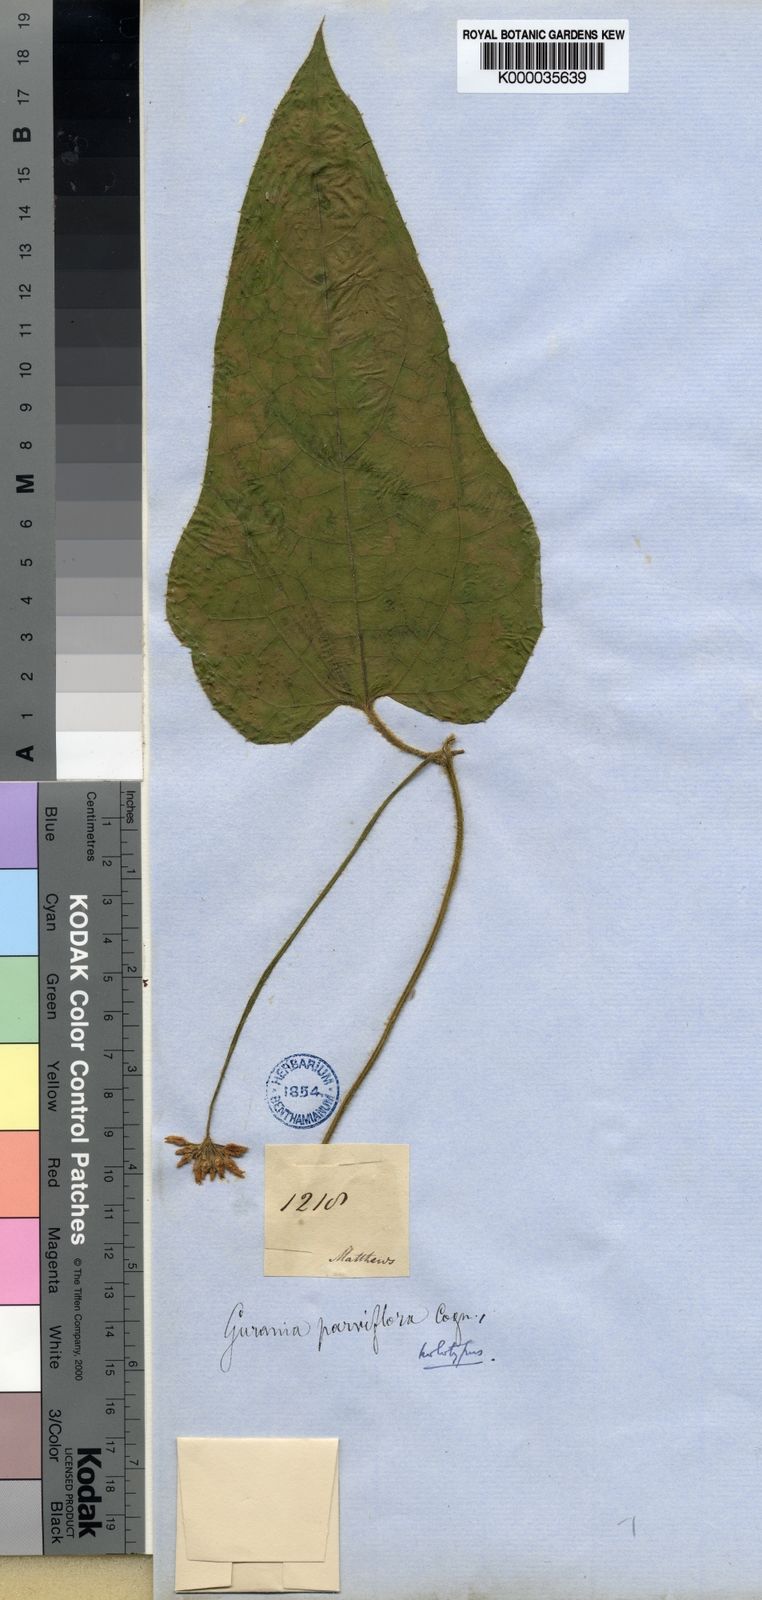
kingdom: Plantae
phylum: Tracheophyta
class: Magnoliopsida
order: Cucurbitales
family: Cucurbitaceae
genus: Gurania
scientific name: Gurania bignoniacea
